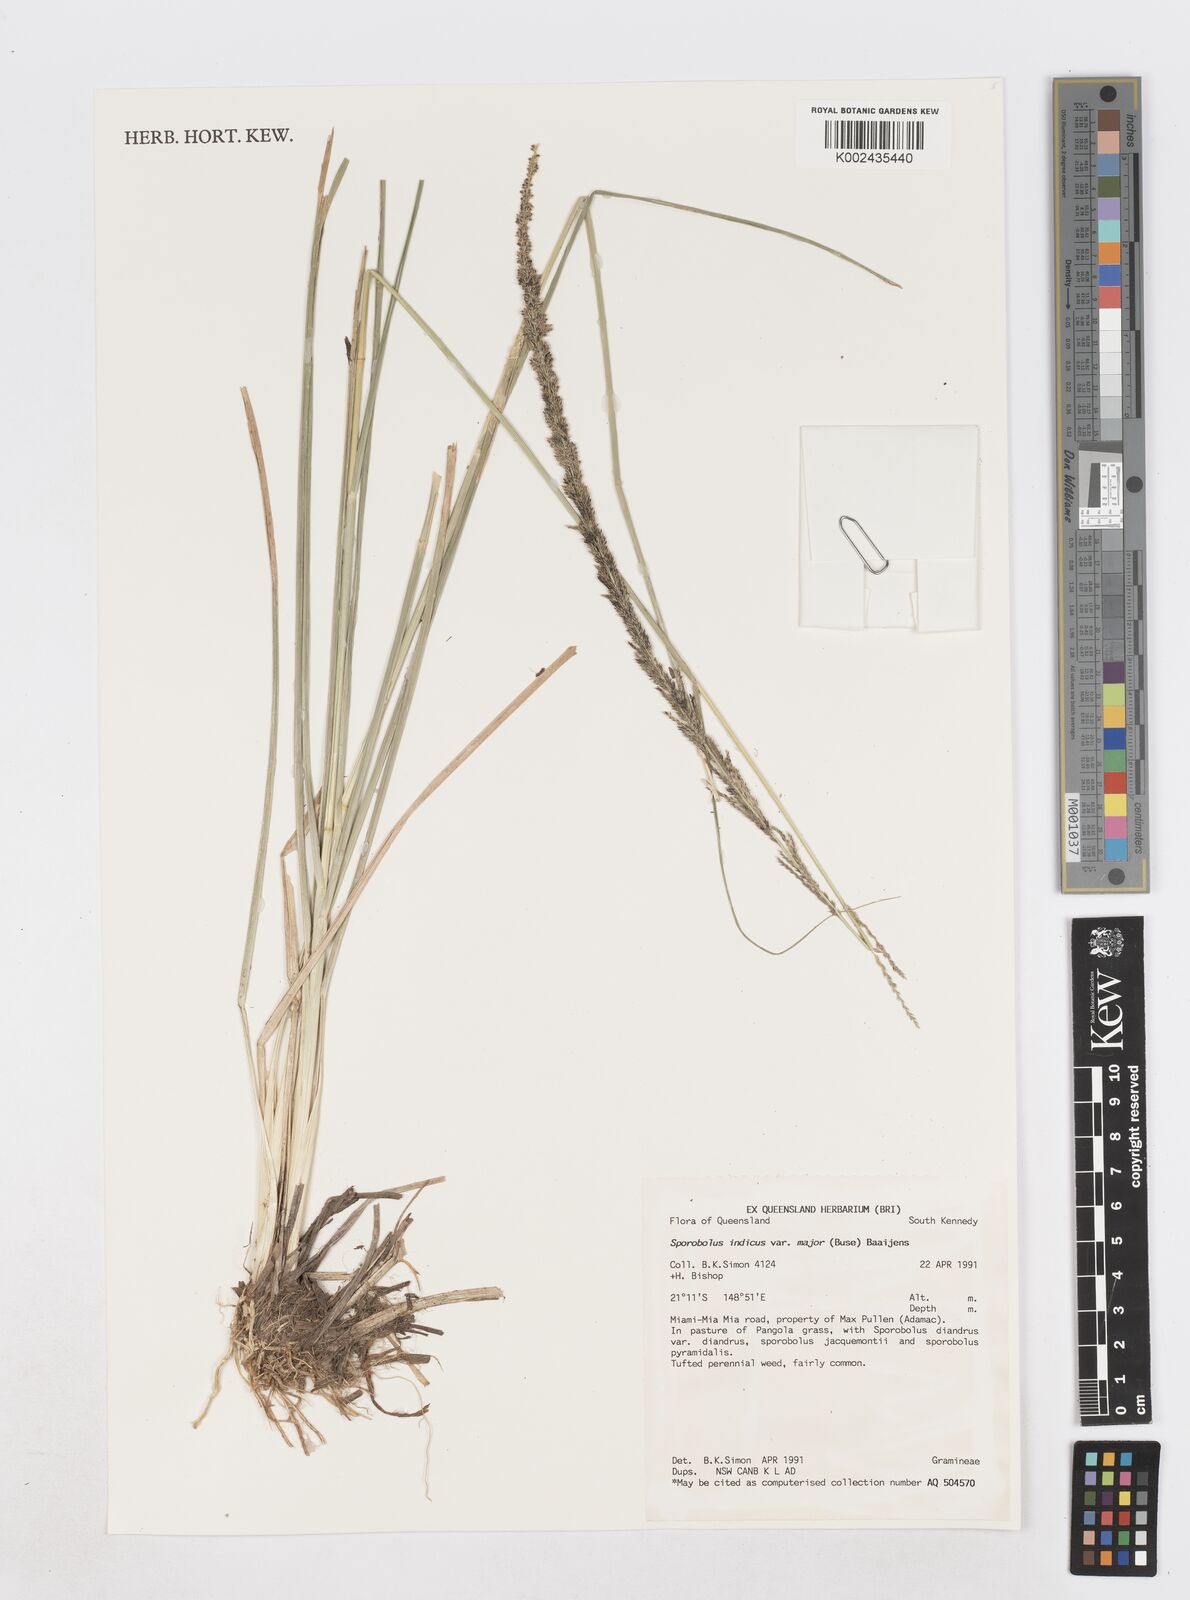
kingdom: Plantae
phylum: Tracheophyta
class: Liliopsida
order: Poales
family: Poaceae
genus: Sporobolus
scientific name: Sporobolus fertilis
